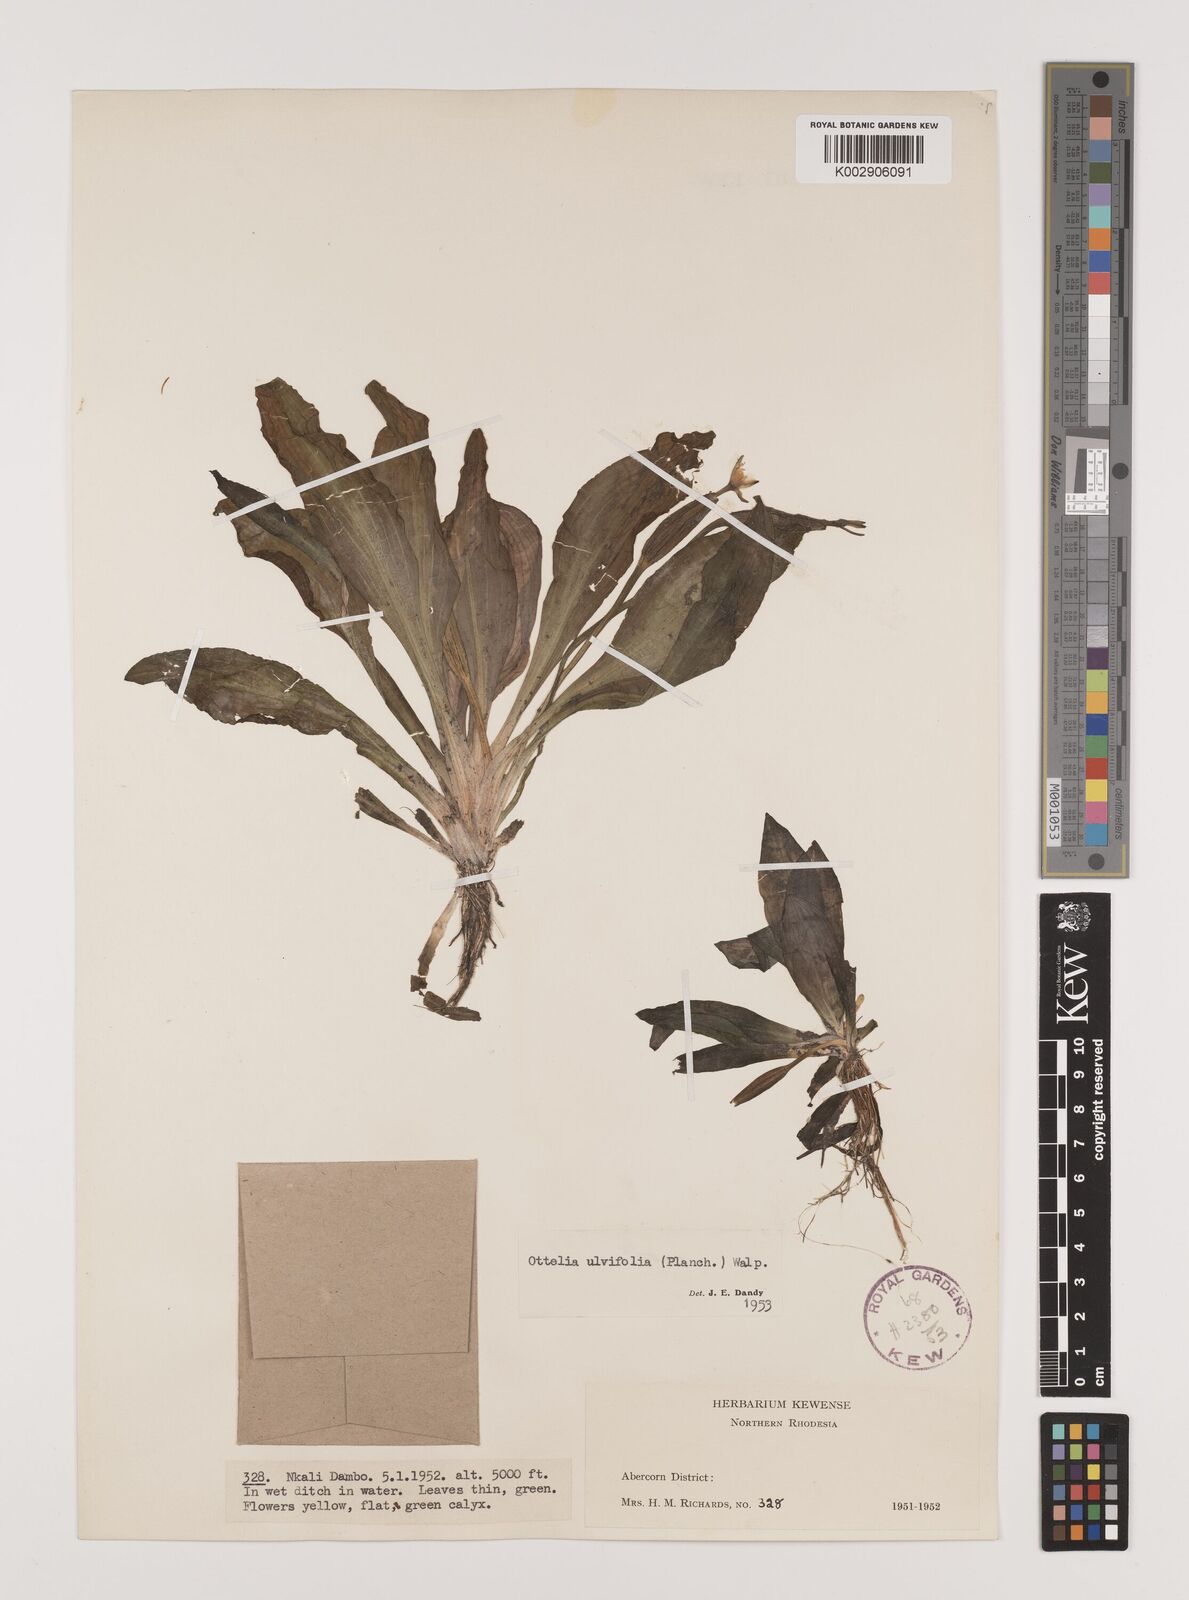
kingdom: Plantae
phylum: Tracheophyta
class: Liliopsida
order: Alismatales
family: Hydrocharitaceae
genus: Ottelia
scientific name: Ottelia ulvifolia
